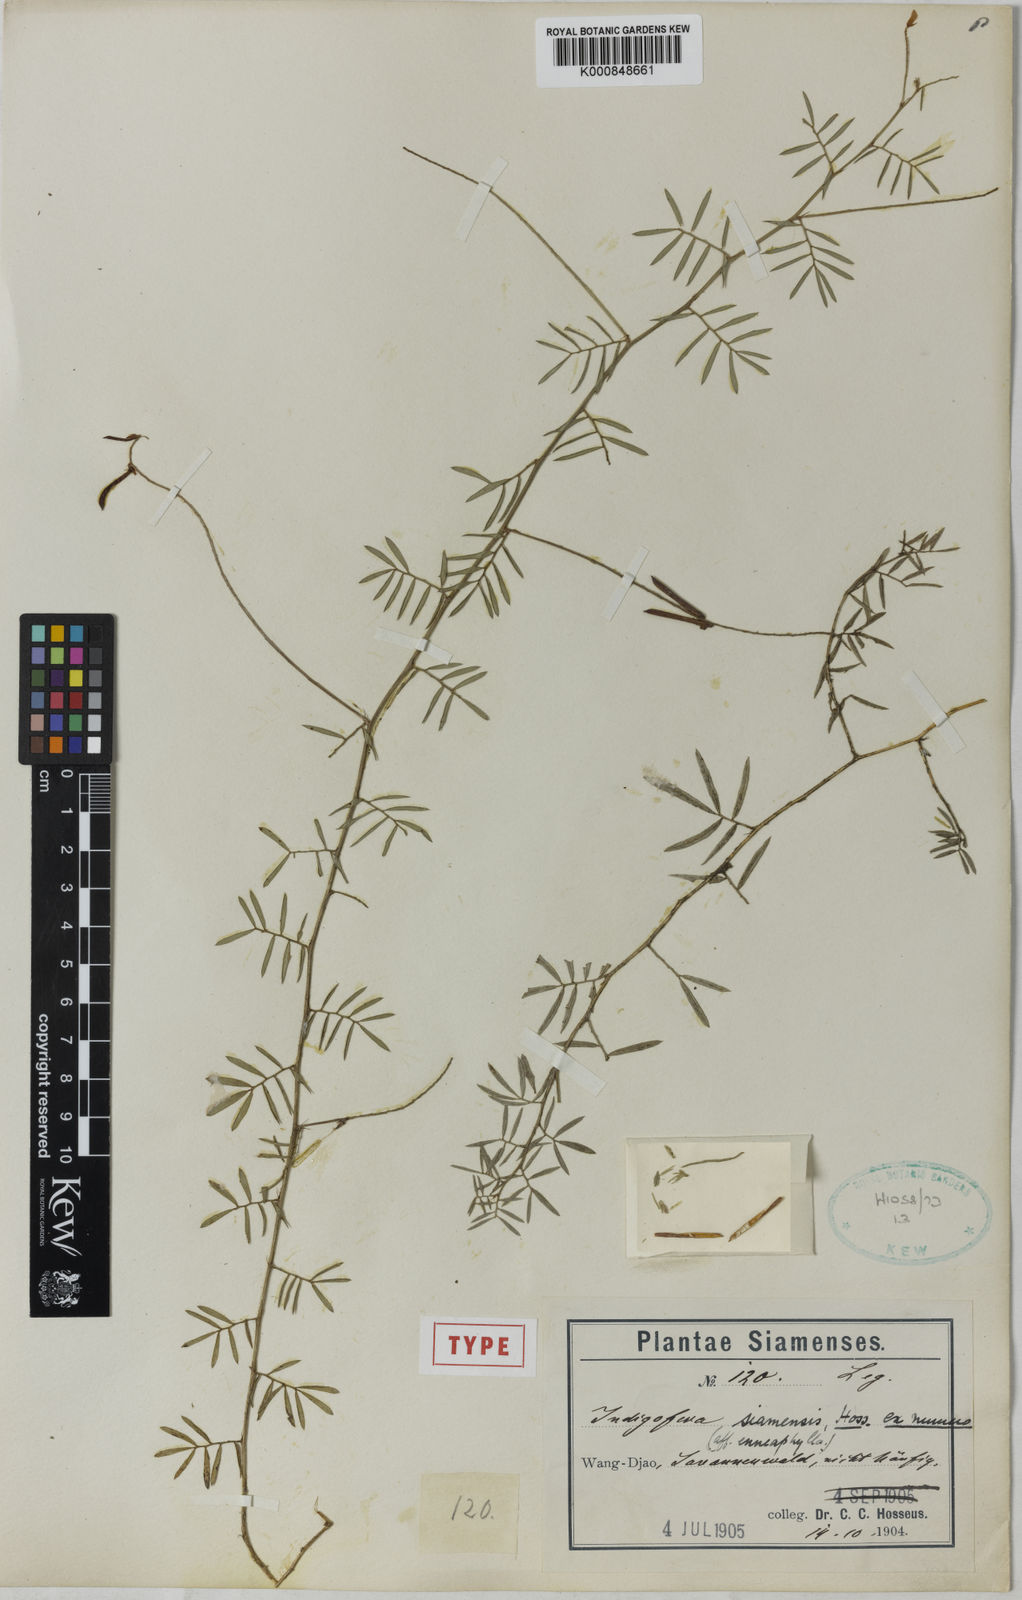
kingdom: Plantae
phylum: Tracheophyta
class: Magnoliopsida
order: Fabales
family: Fabaceae
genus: Indigofera
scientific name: Indigofera hendecaphylla
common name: Trailing indigo
